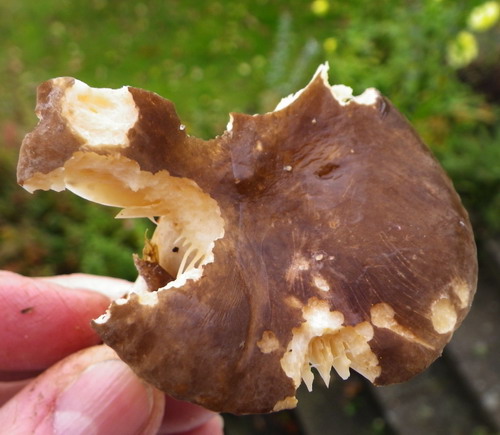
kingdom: Fungi
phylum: Basidiomycota
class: Agaricomycetes
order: Russulales
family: Russulaceae
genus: Lactarius
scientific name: Lactarius romagnesii
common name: fjernbladet mælkehat
